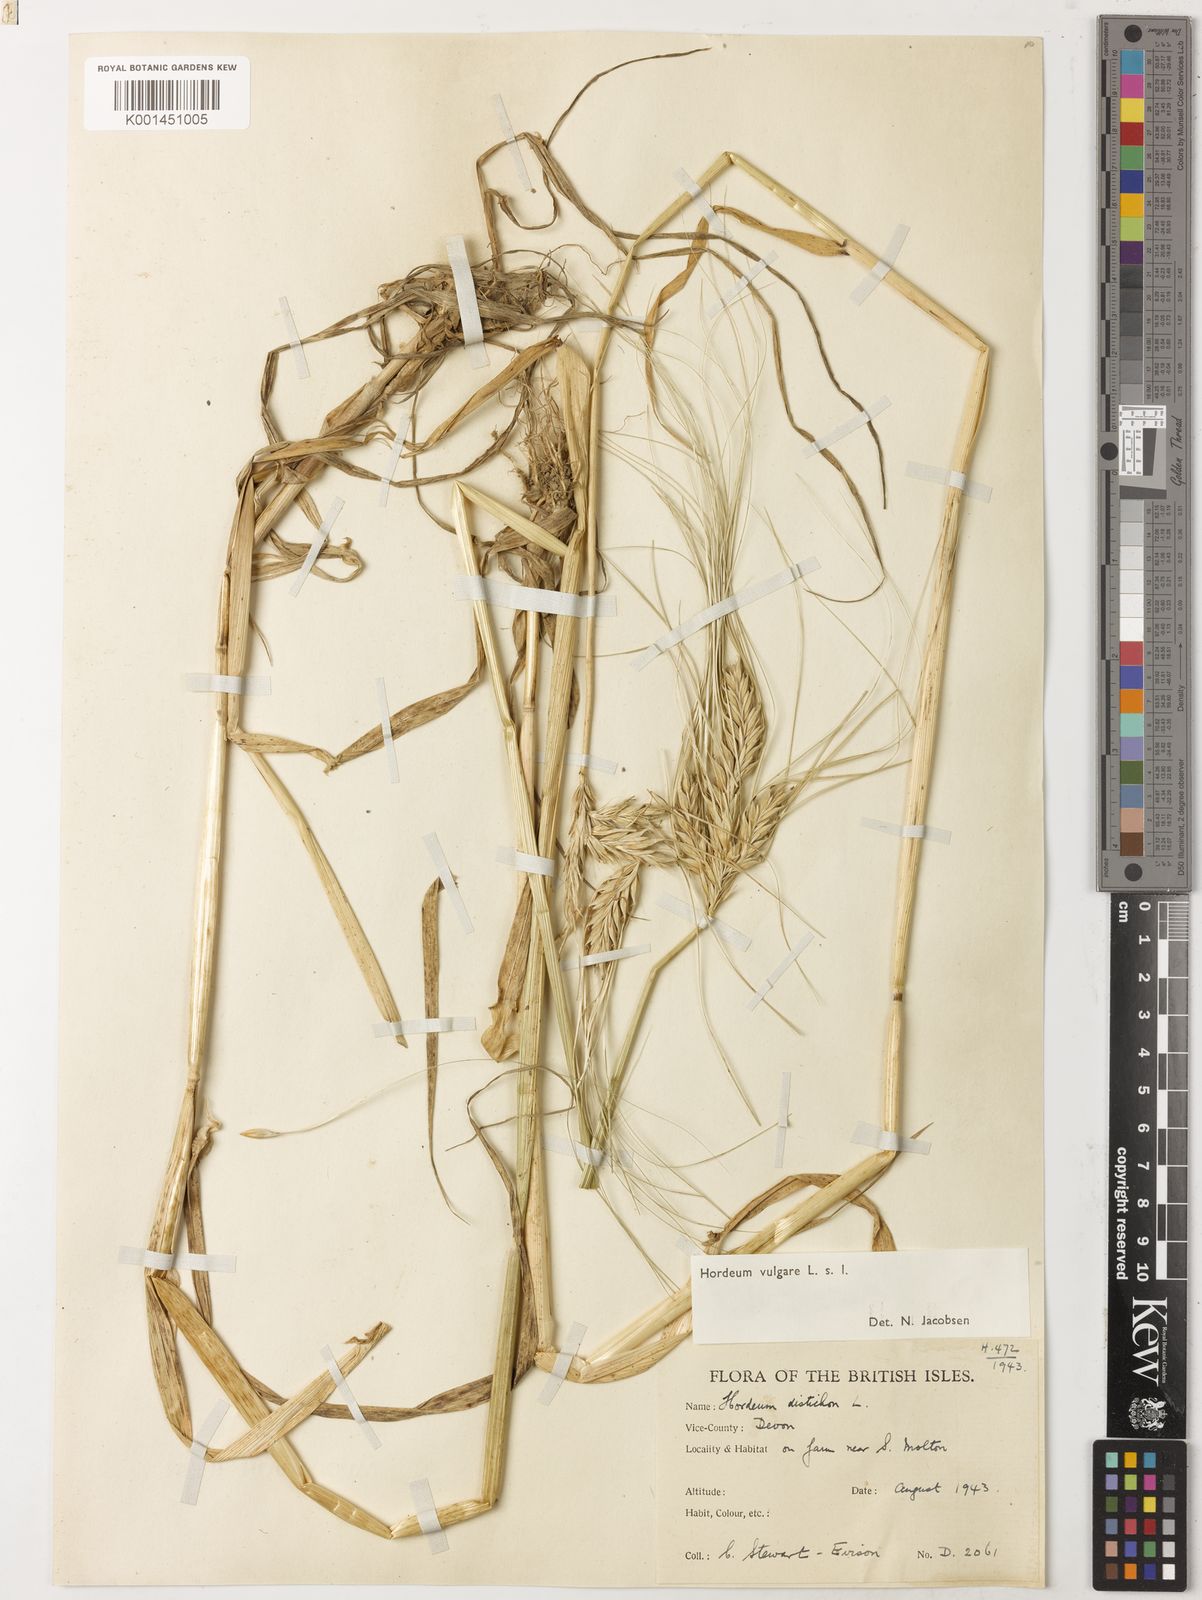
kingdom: Plantae
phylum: Tracheophyta
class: Liliopsida
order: Poales
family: Poaceae
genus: Hordeum
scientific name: Hordeum vulgare
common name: Common barley
